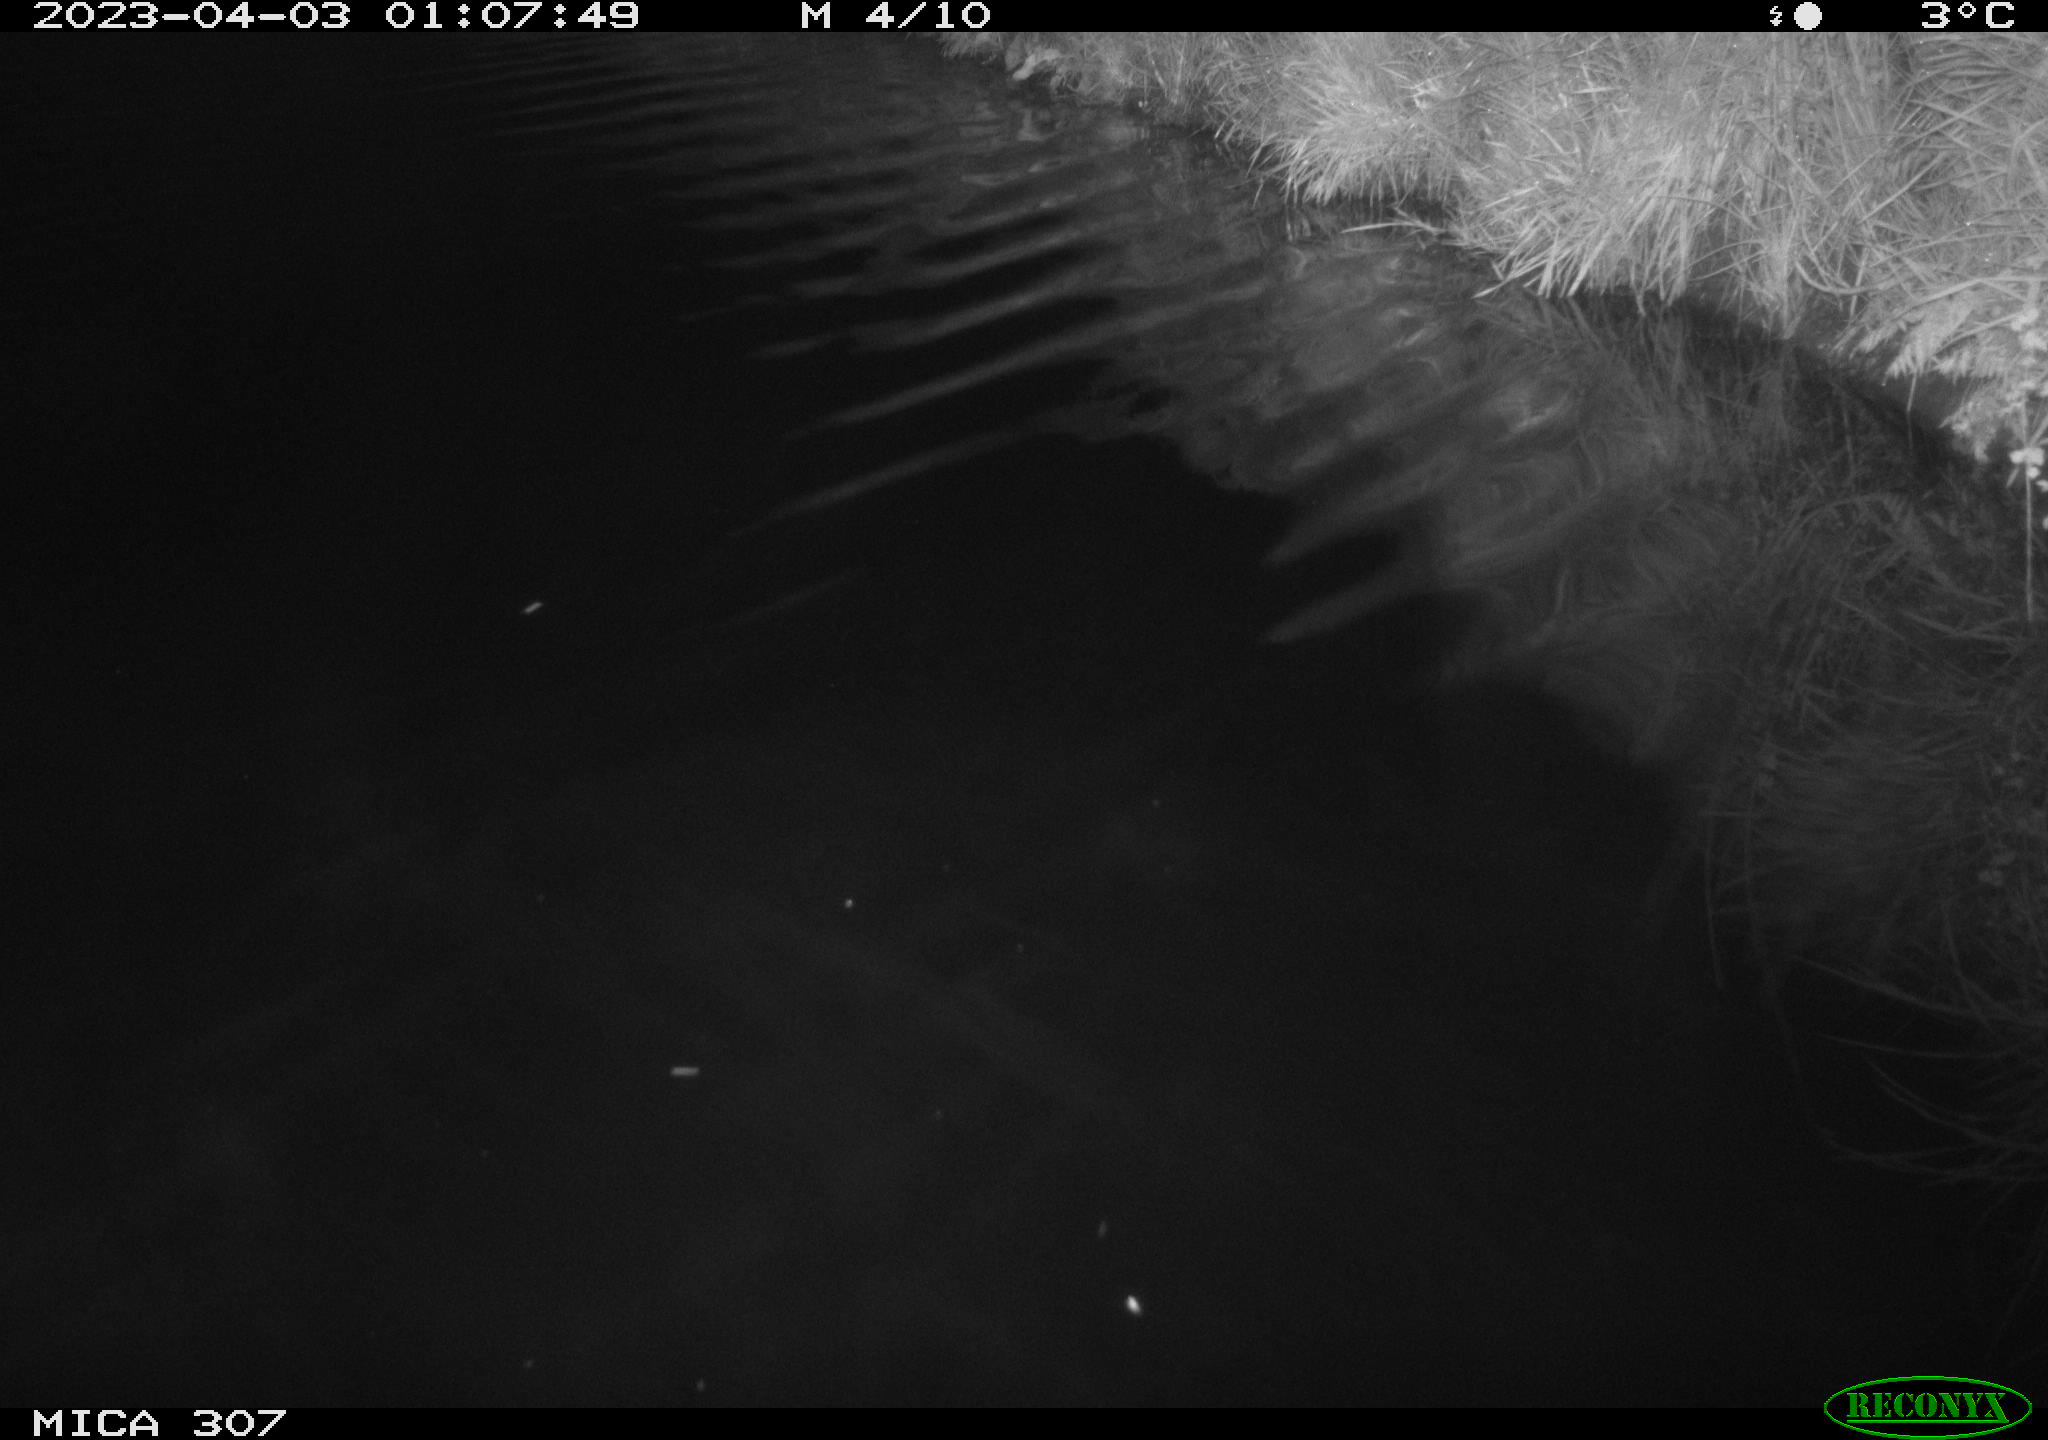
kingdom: Animalia
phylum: Chordata
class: Aves
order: Anseriformes
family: Anatidae
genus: Anas
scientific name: Anas
